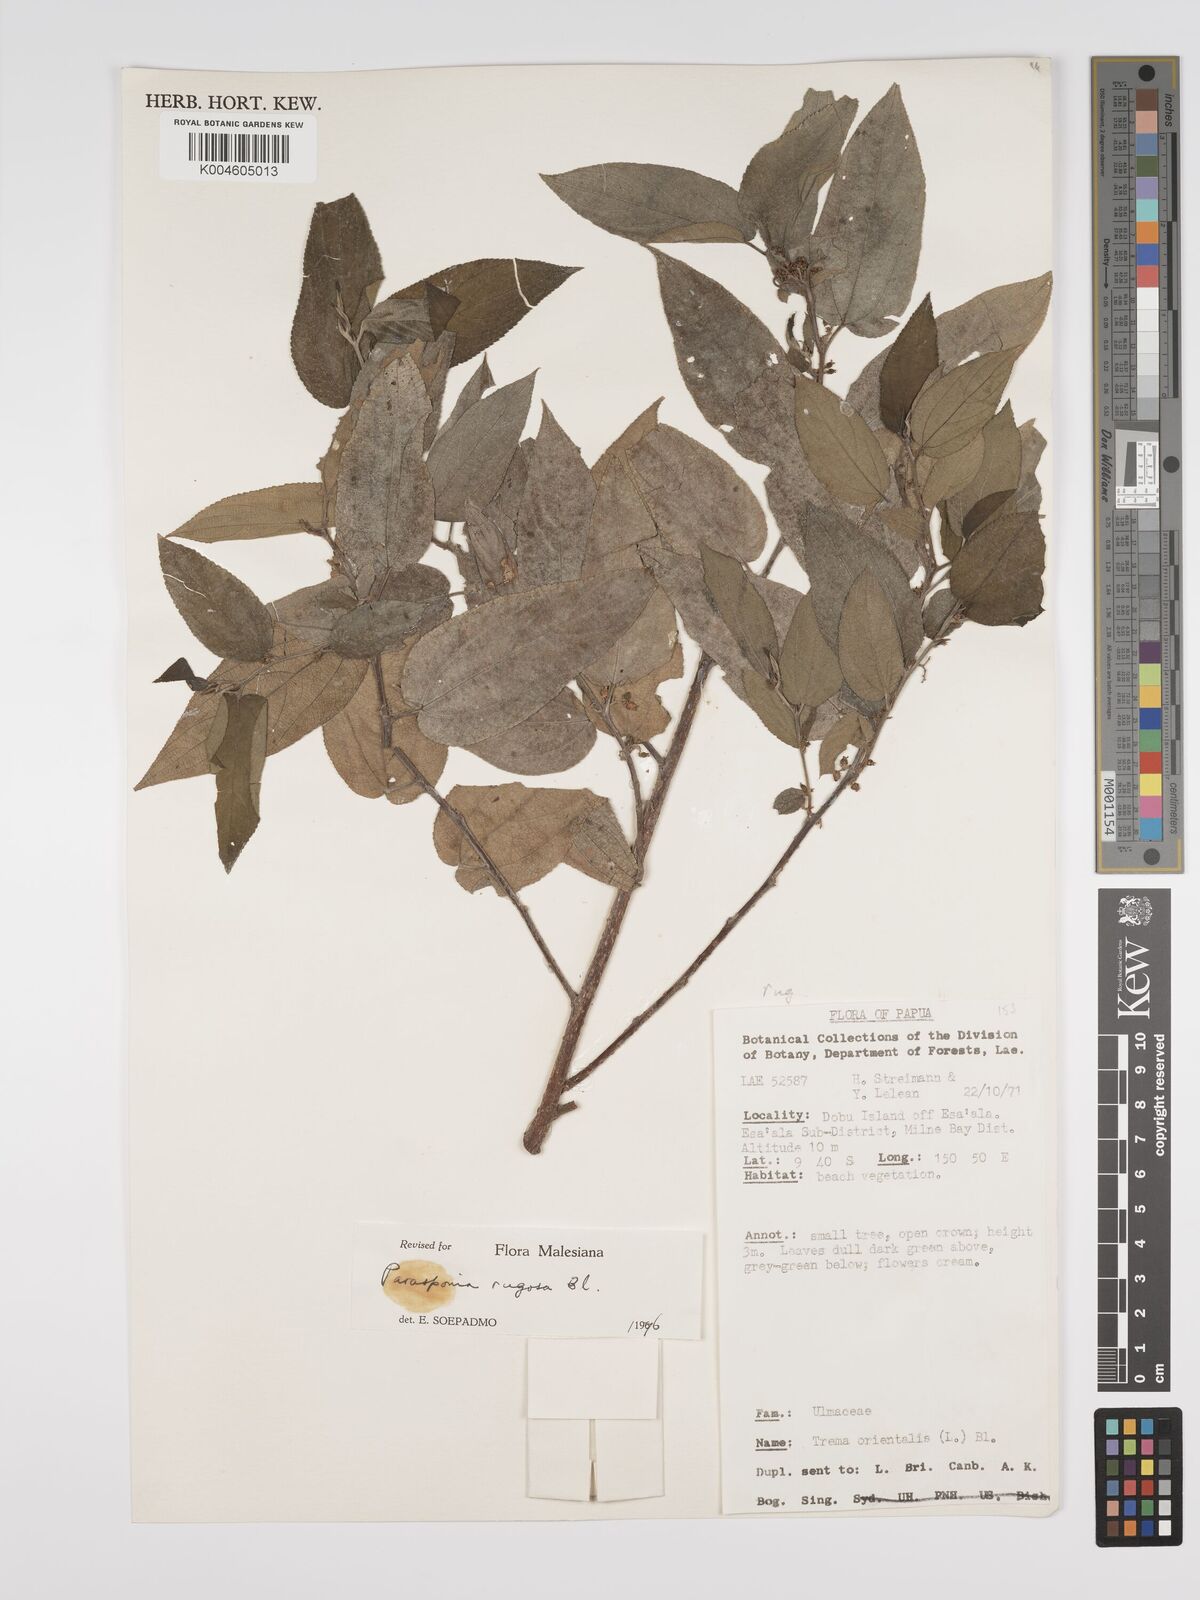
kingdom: Plantae
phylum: Tracheophyta
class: Magnoliopsida
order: Rosales
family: Cannabaceae
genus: Trema
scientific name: Trema eurhynchum
